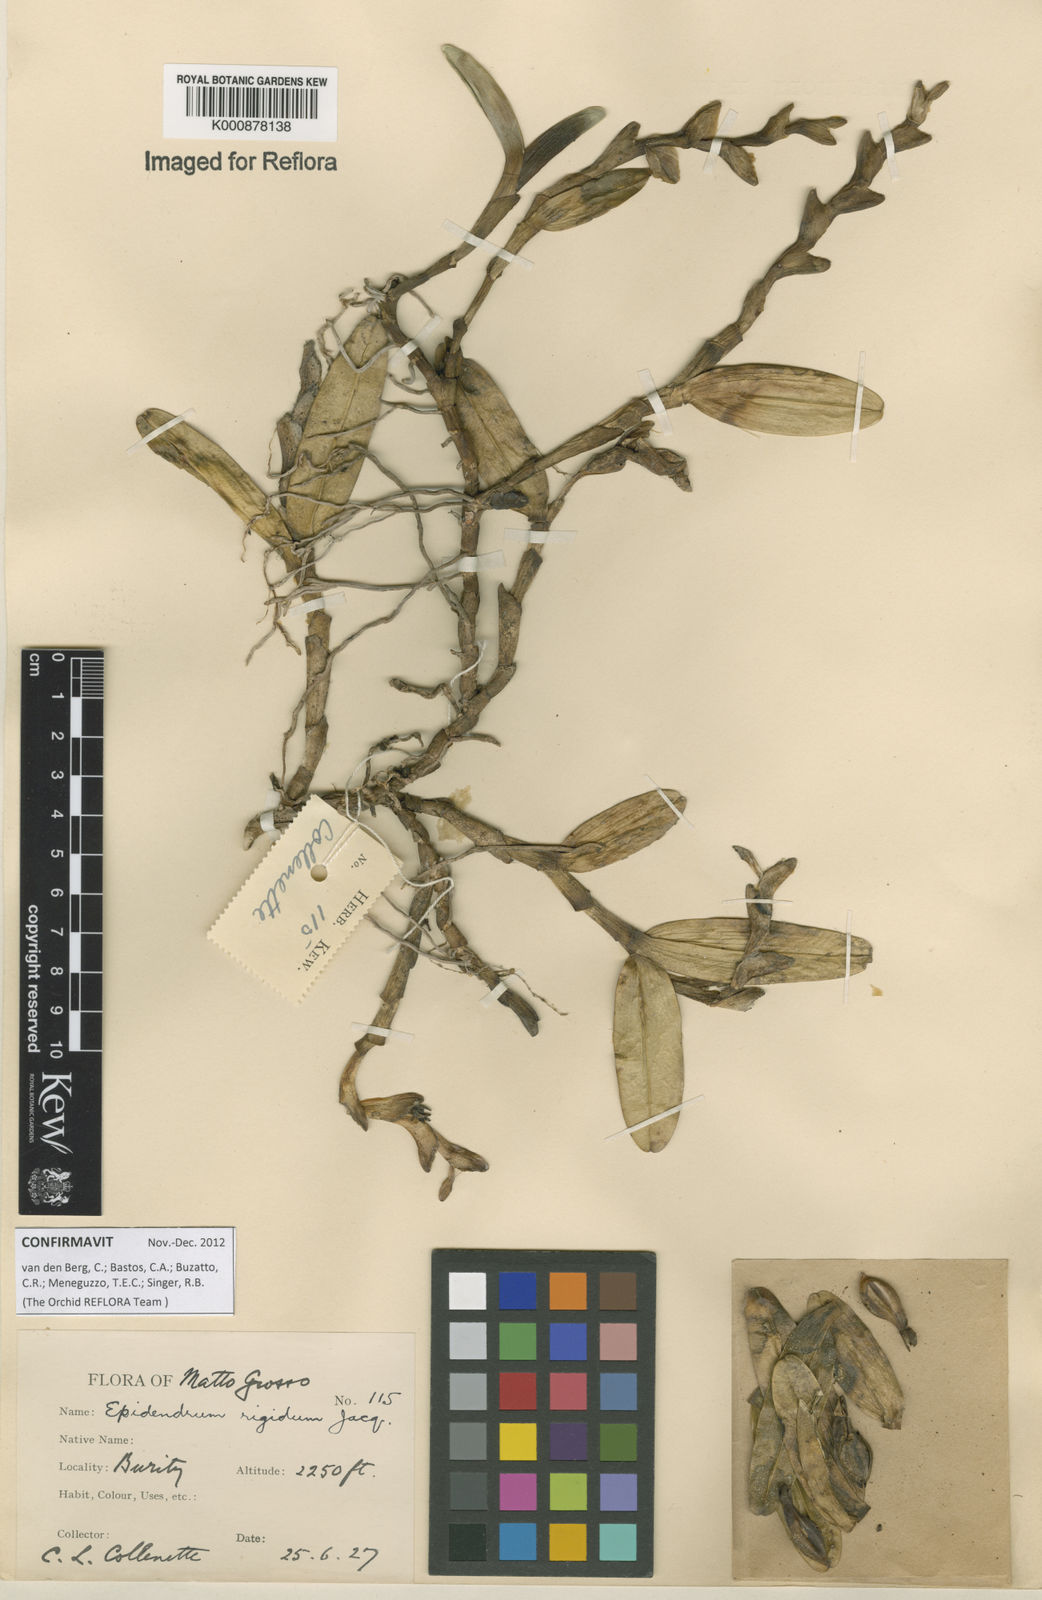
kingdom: Plantae
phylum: Tracheophyta
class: Liliopsida
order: Asparagales
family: Orchidaceae
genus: Epidendrum
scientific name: Epidendrum rigidum
